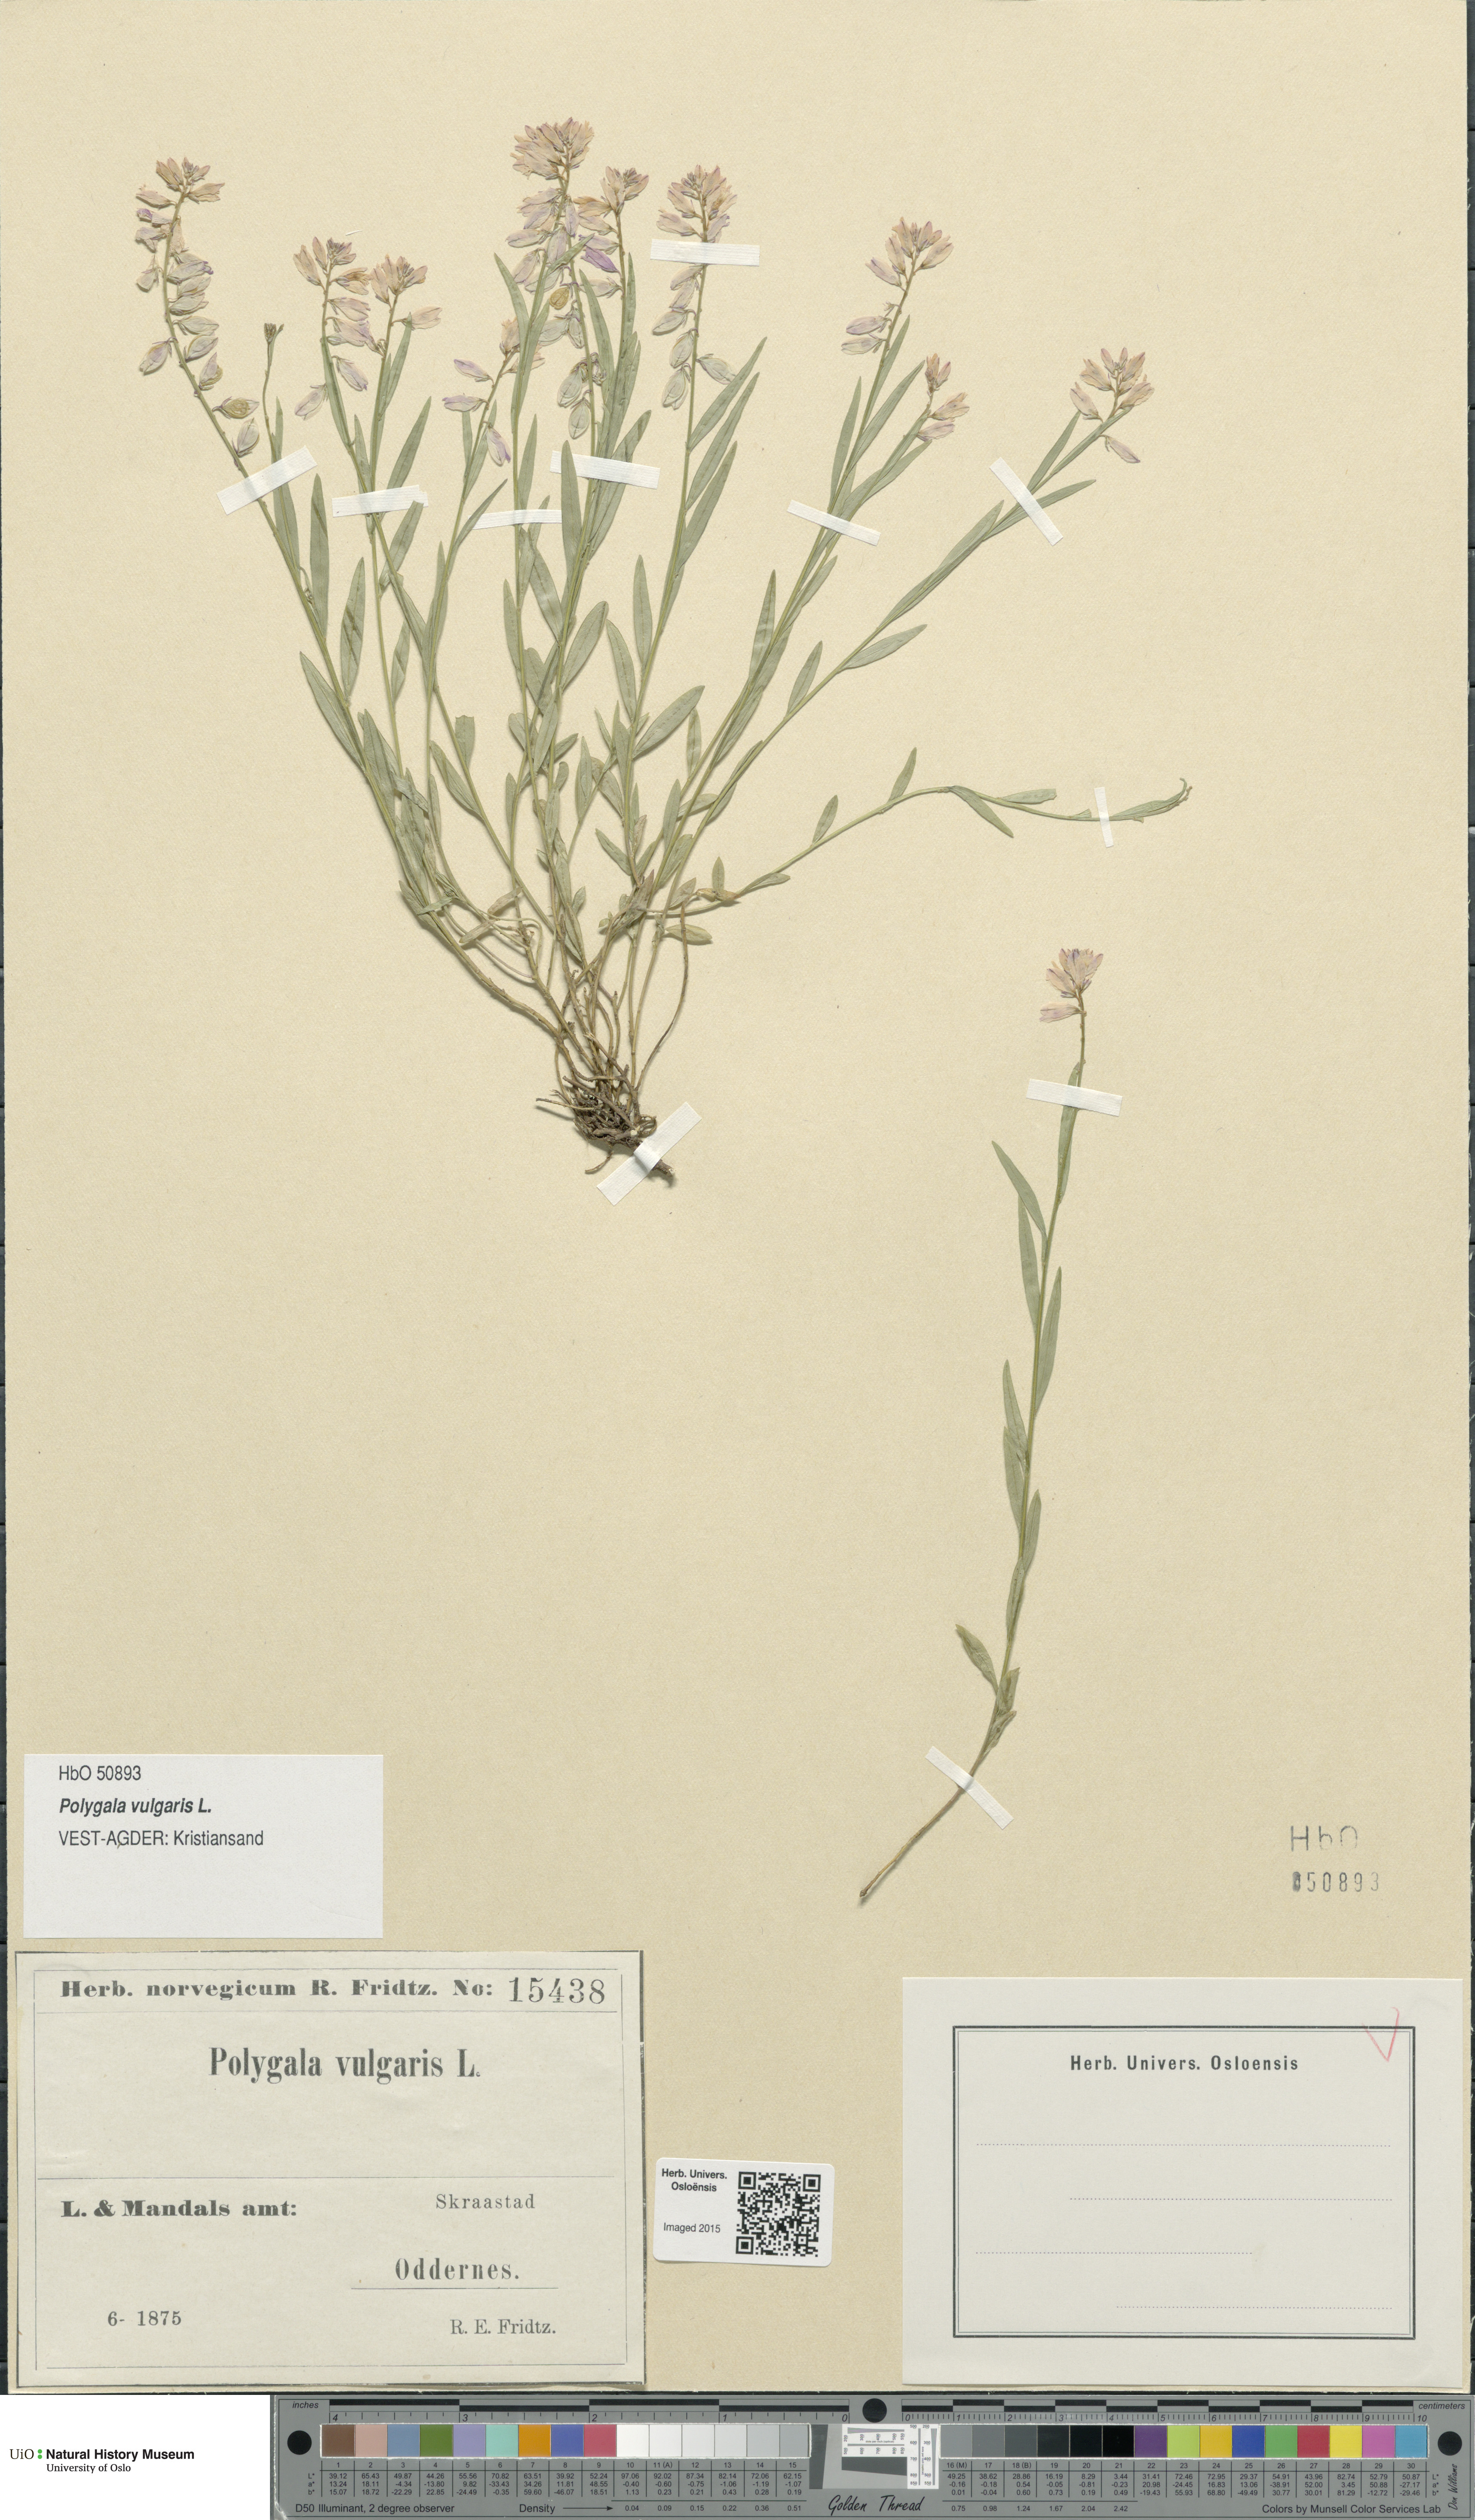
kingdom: Plantae
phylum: Tracheophyta
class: Magnoliopsida
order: Fabales
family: Polygalaceae
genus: Polygala
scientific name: Polygala vulgaris
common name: Common milkwort
